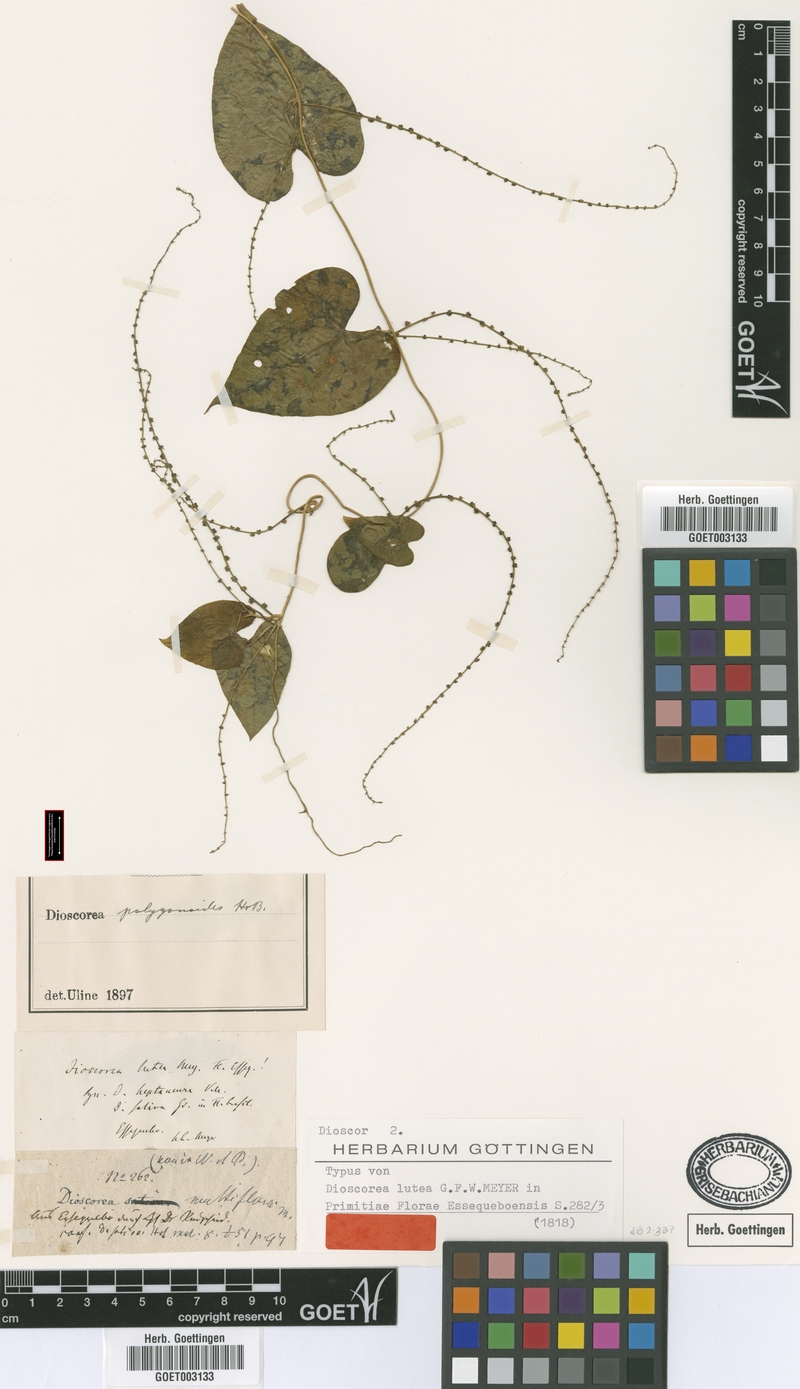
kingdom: Plantae
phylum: Tracheophyta
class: Liliopsida
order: Dioscoreales
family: Dioscoreaceae
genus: Dioscorea
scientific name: Dioscorea polygonoides
